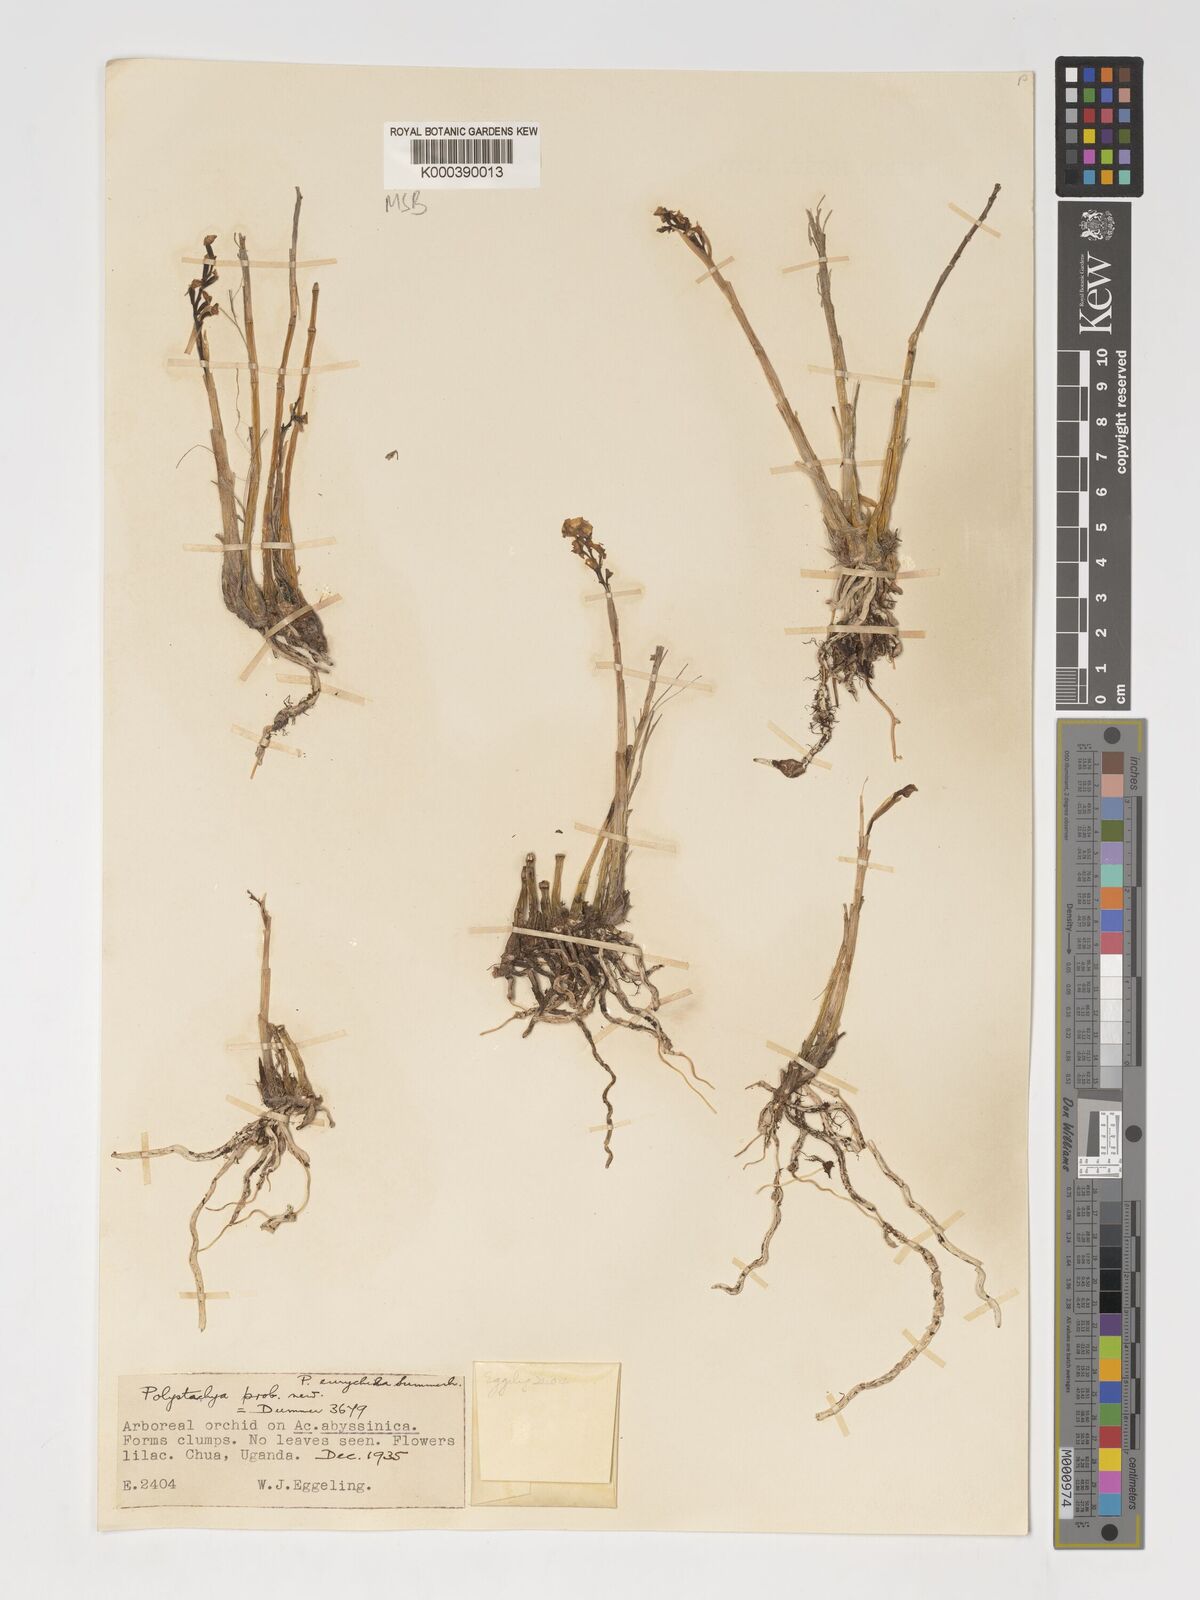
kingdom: Plantae
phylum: Tracheophyta
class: Liliopsida
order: Asparagales
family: Orchidaceae
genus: Polystachya
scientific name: Polystachya eurychila
